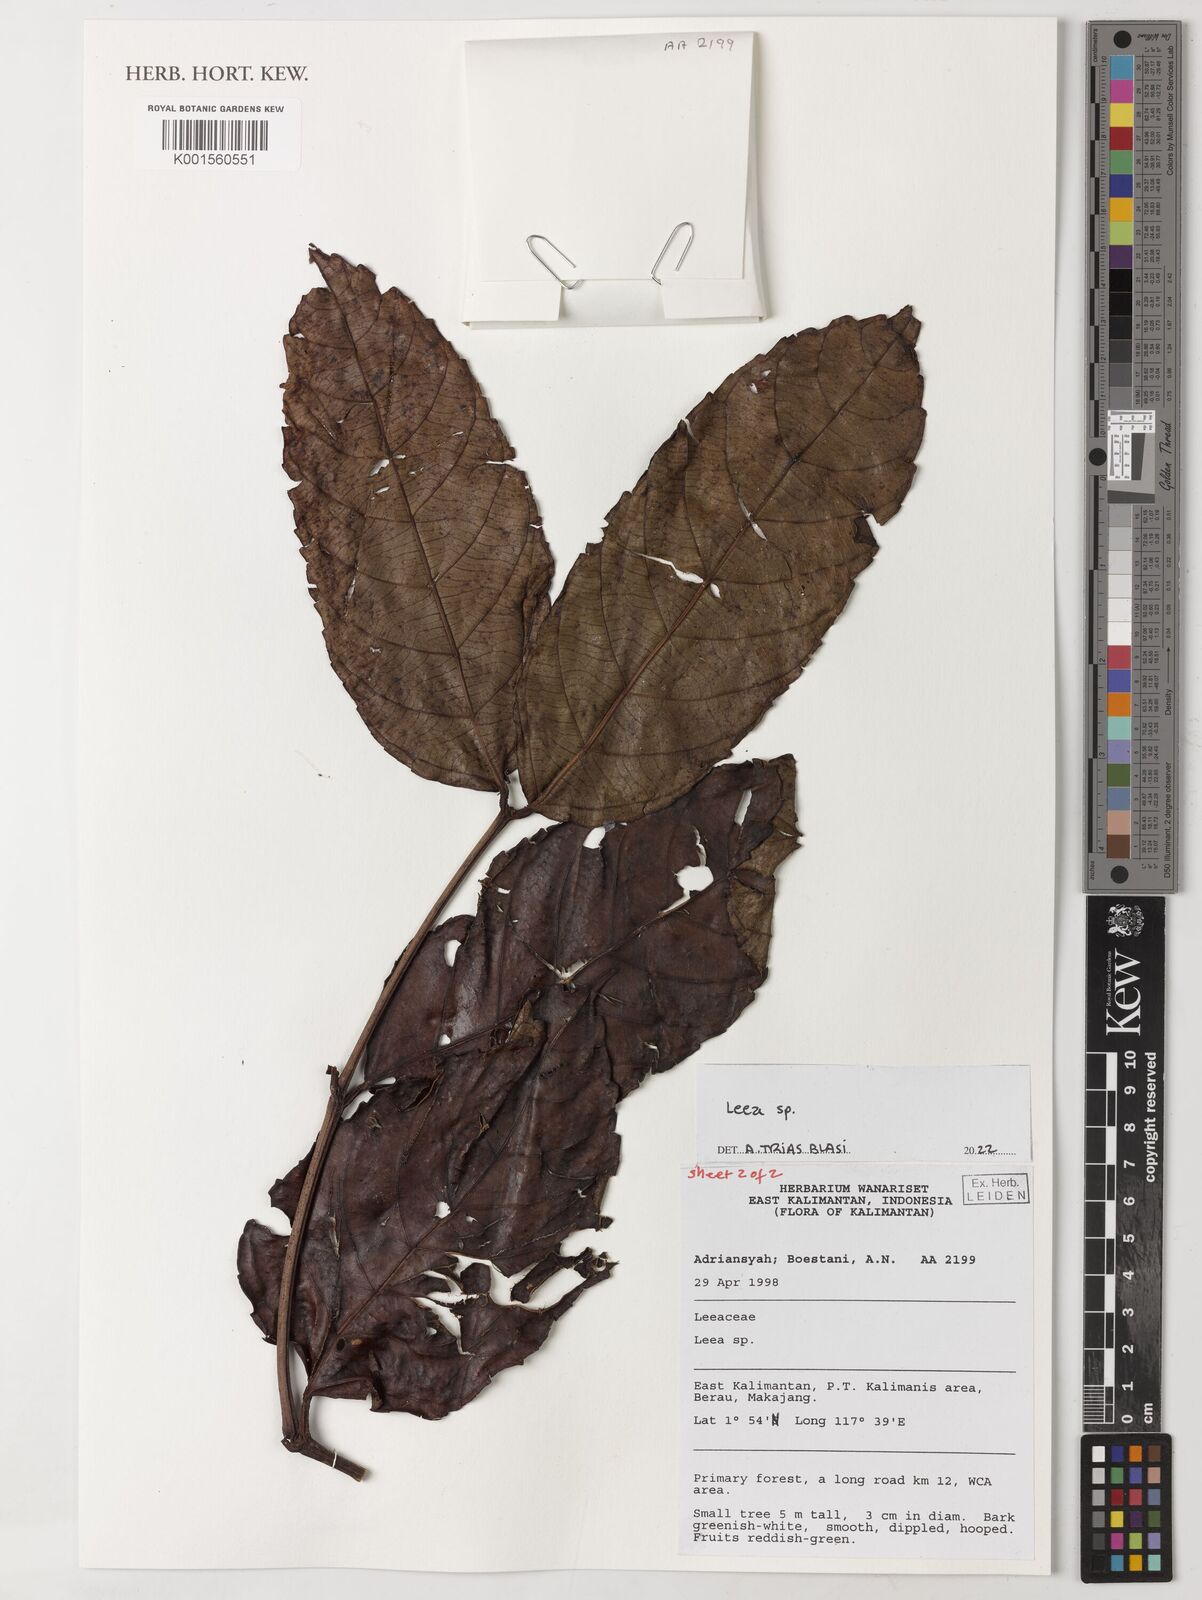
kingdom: Plantae
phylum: Tracheophyta
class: Magnoliopsida
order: Vitales
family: Vitaceae
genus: Leea
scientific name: Leea
